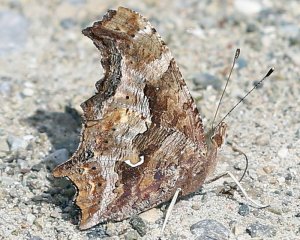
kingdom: Animalia
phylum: Arthropoda
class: Insecta
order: Lepidoptera
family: Nymphalidae
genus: Polygonia
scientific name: Polygonia comma
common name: Eastern Comma
